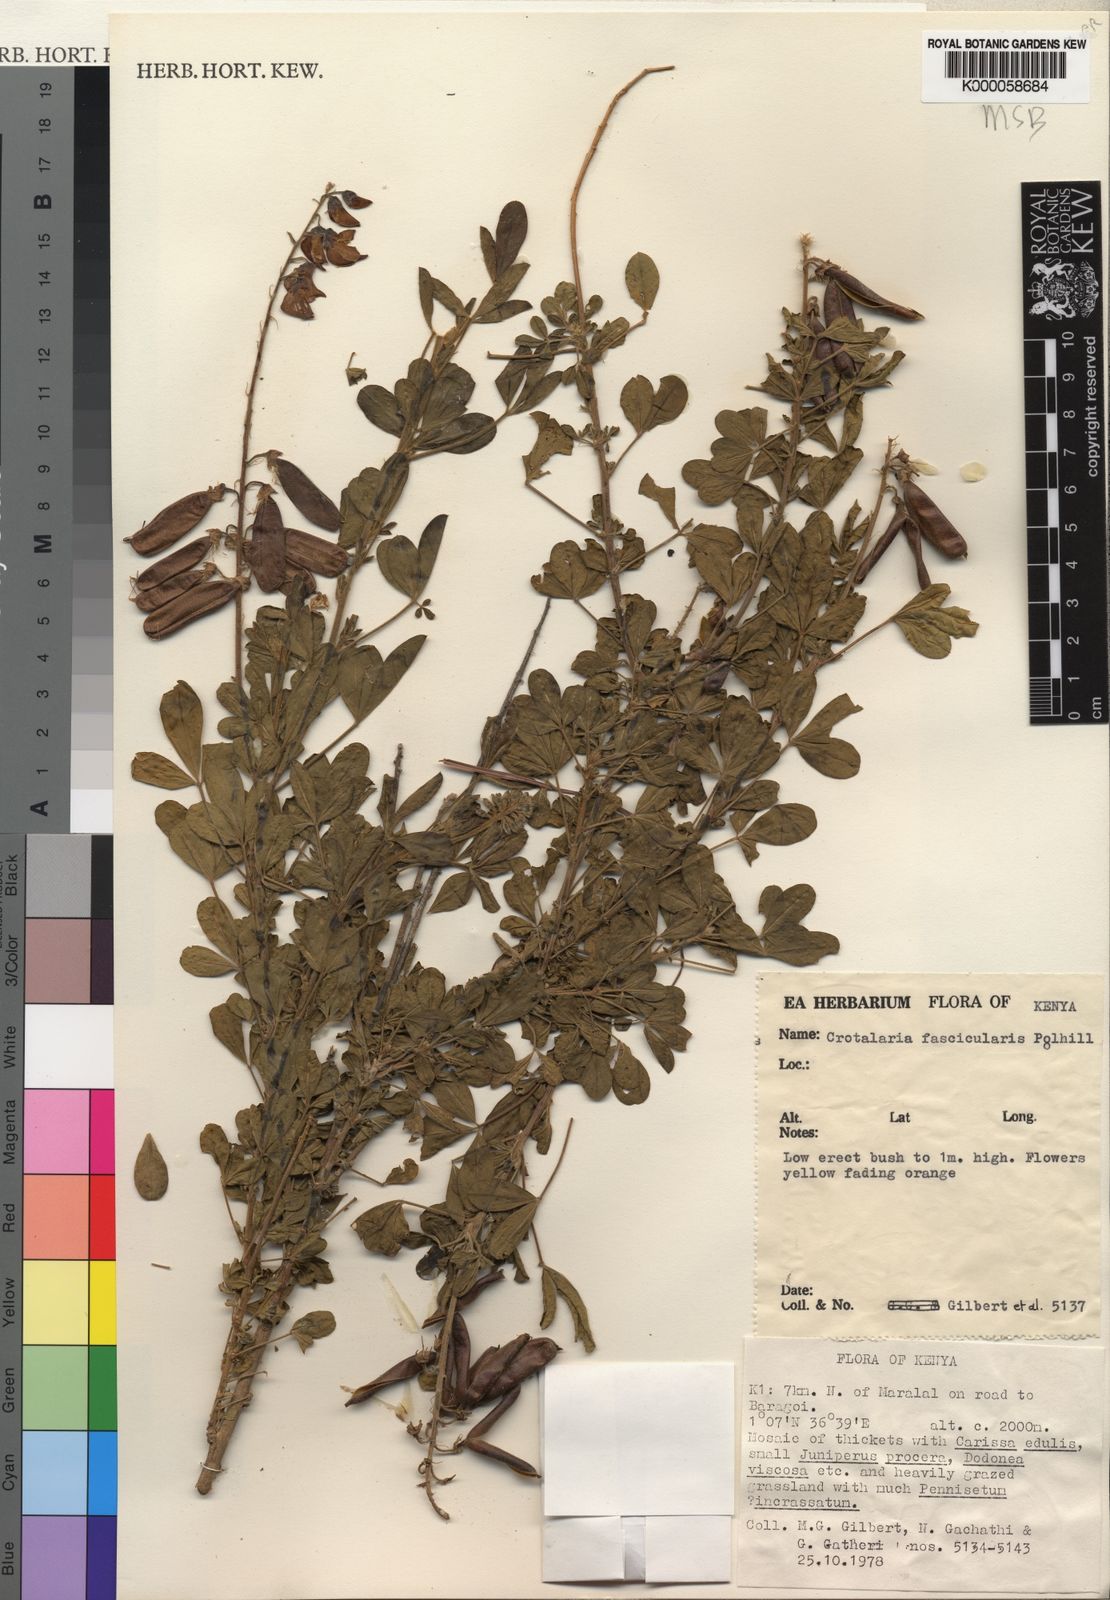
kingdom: Plantae
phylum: Tracheophyta
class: Magnoliopsida
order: Fabales
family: Fabaceae
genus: Crotalaria
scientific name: Crotalaria fascicularis
